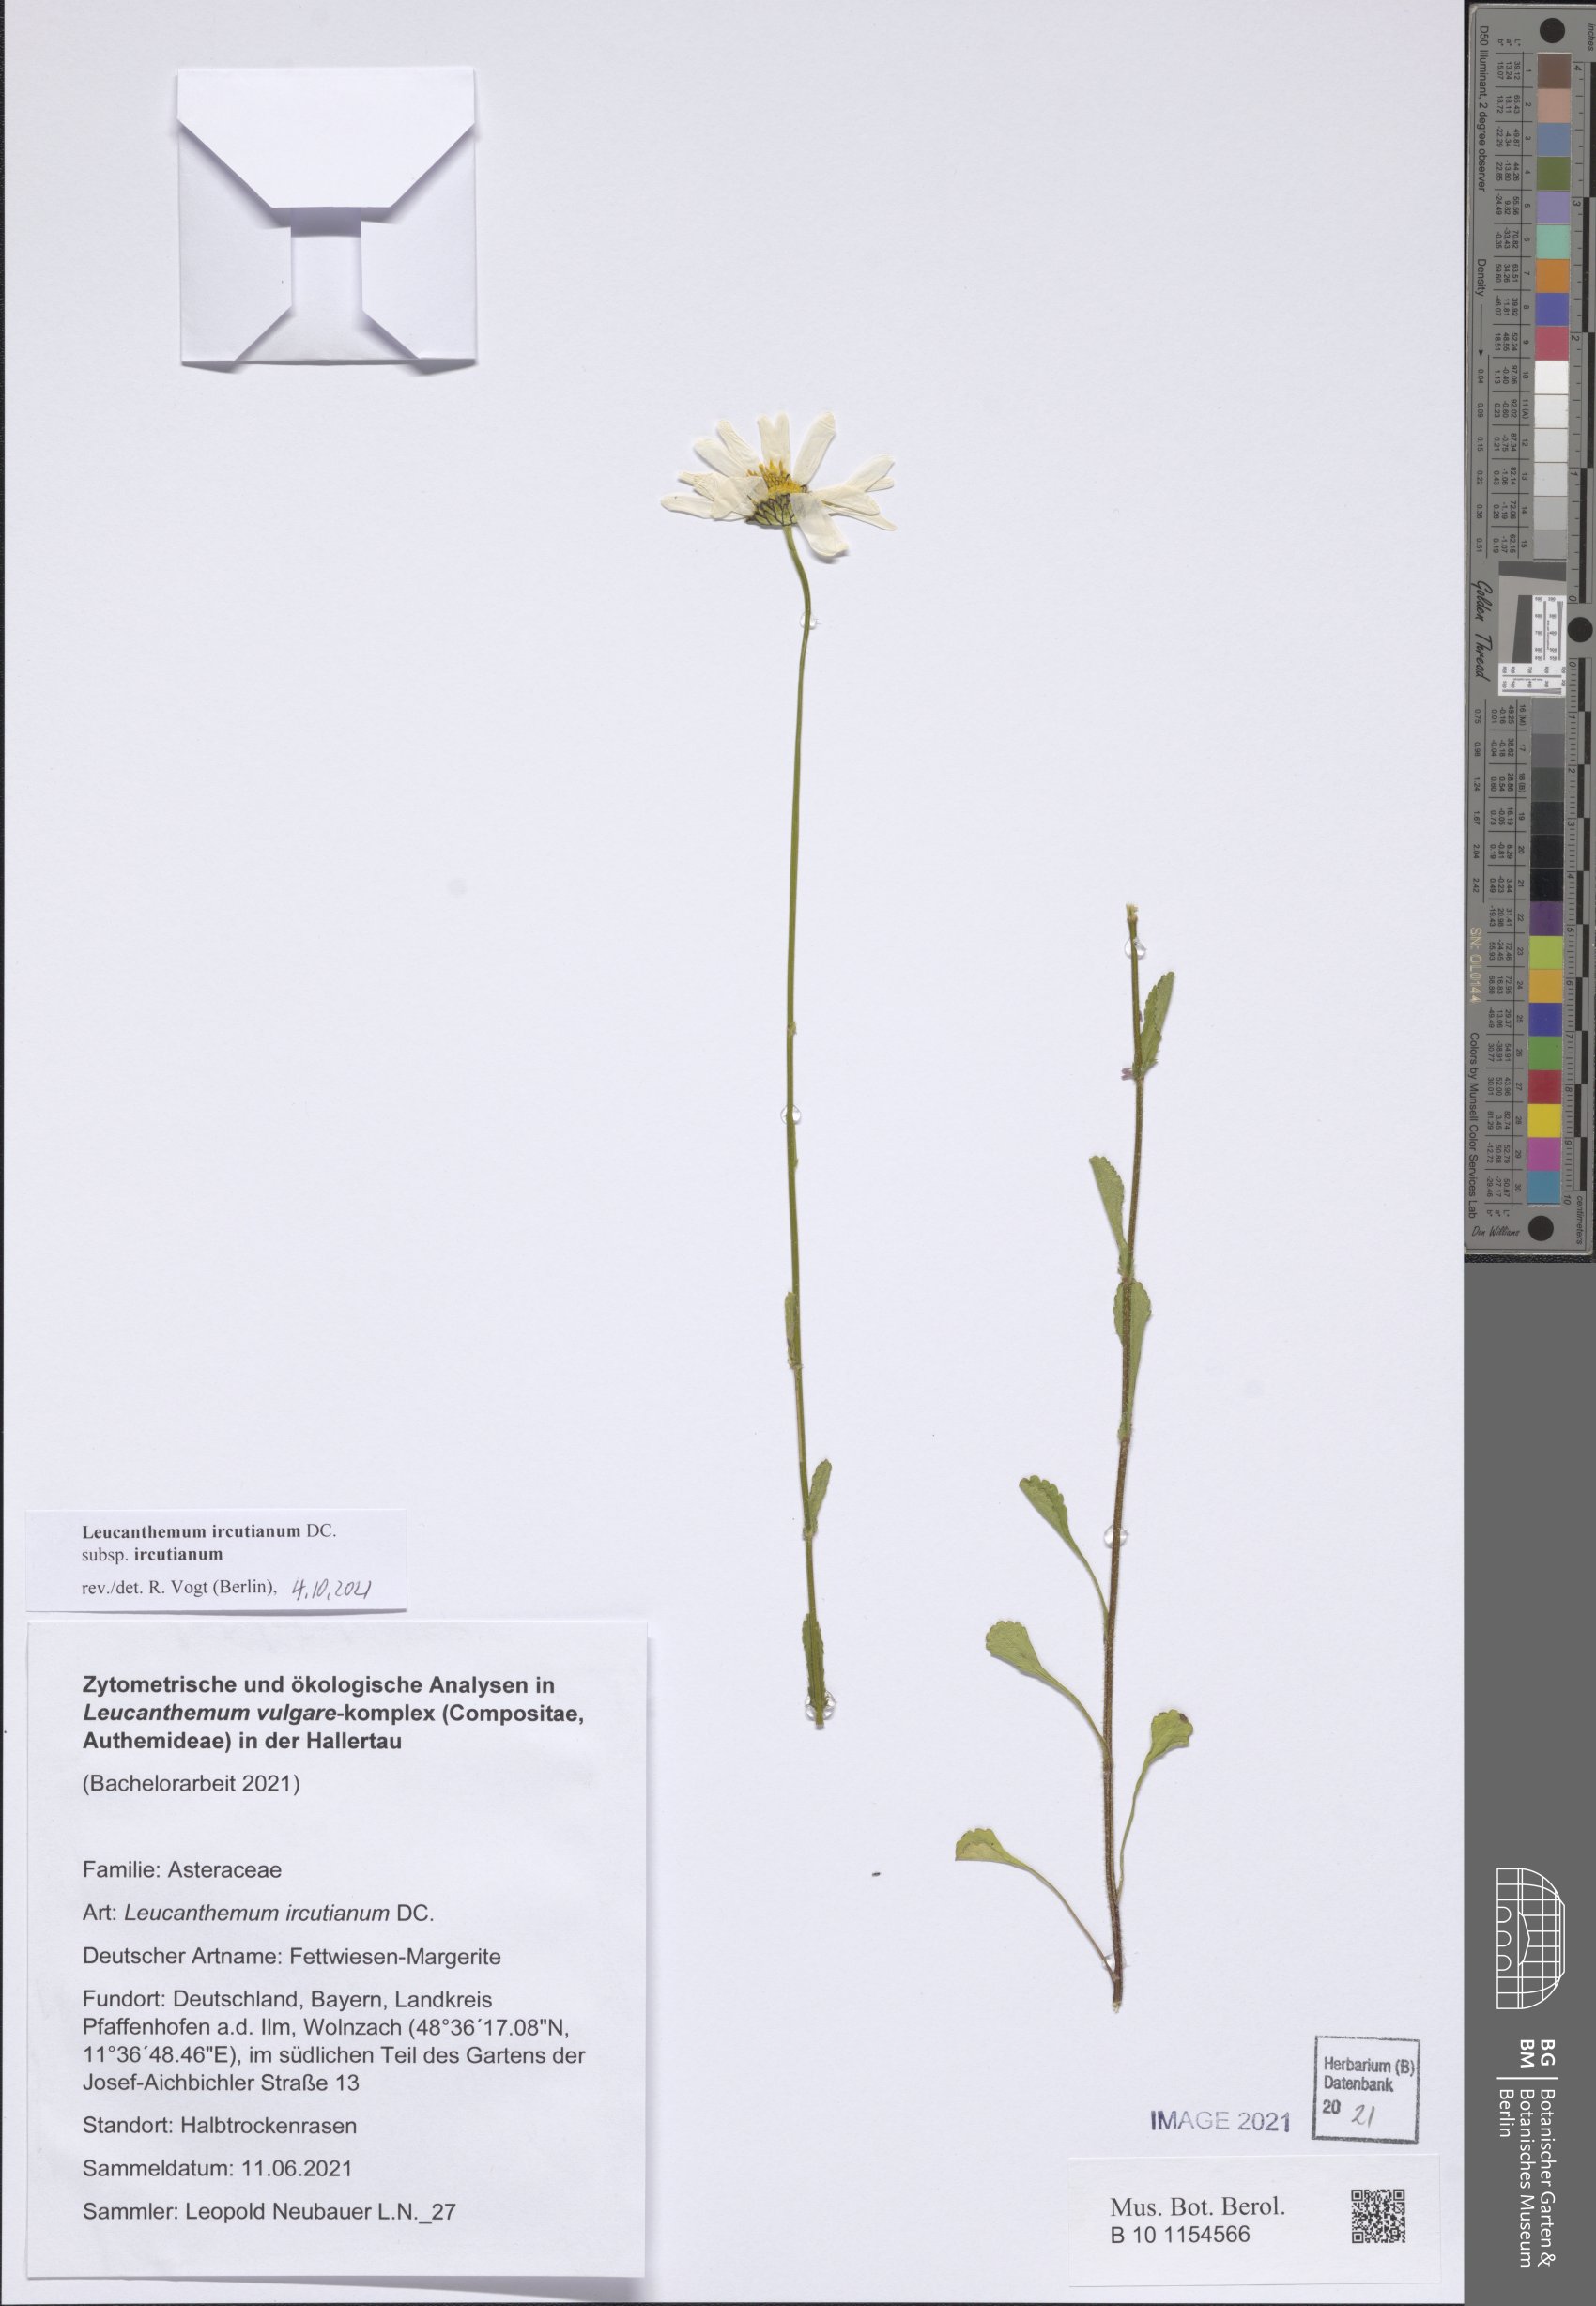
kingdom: Plantae
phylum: Tracheophyta
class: Magnoliopsida
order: Asterales
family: Asteraceae
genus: Leucanthemum
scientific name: Leucanthemum ircutianum
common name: Daisy
